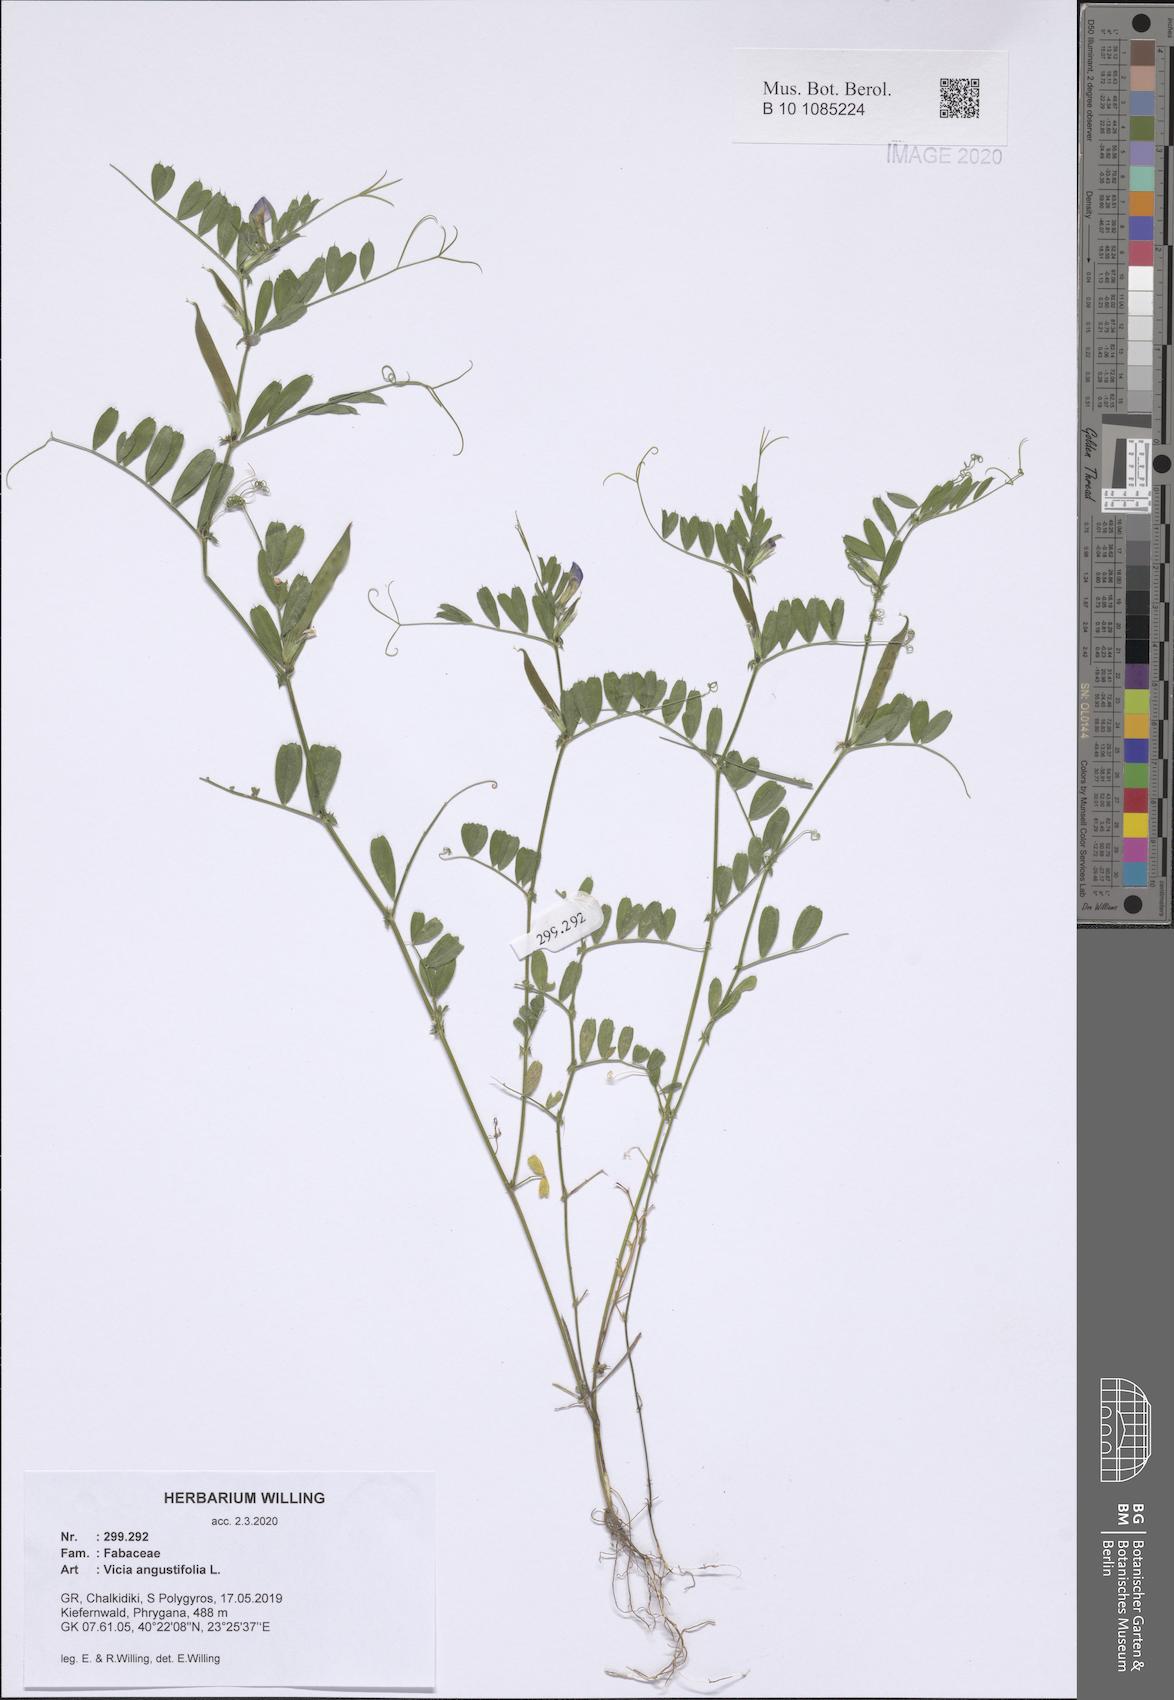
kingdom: Plantae
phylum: Tracheophyta
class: Magnoliopsida
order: Fabales
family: Fabaceae
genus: Vicia
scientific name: Vicia sativa
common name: Garden vetch
